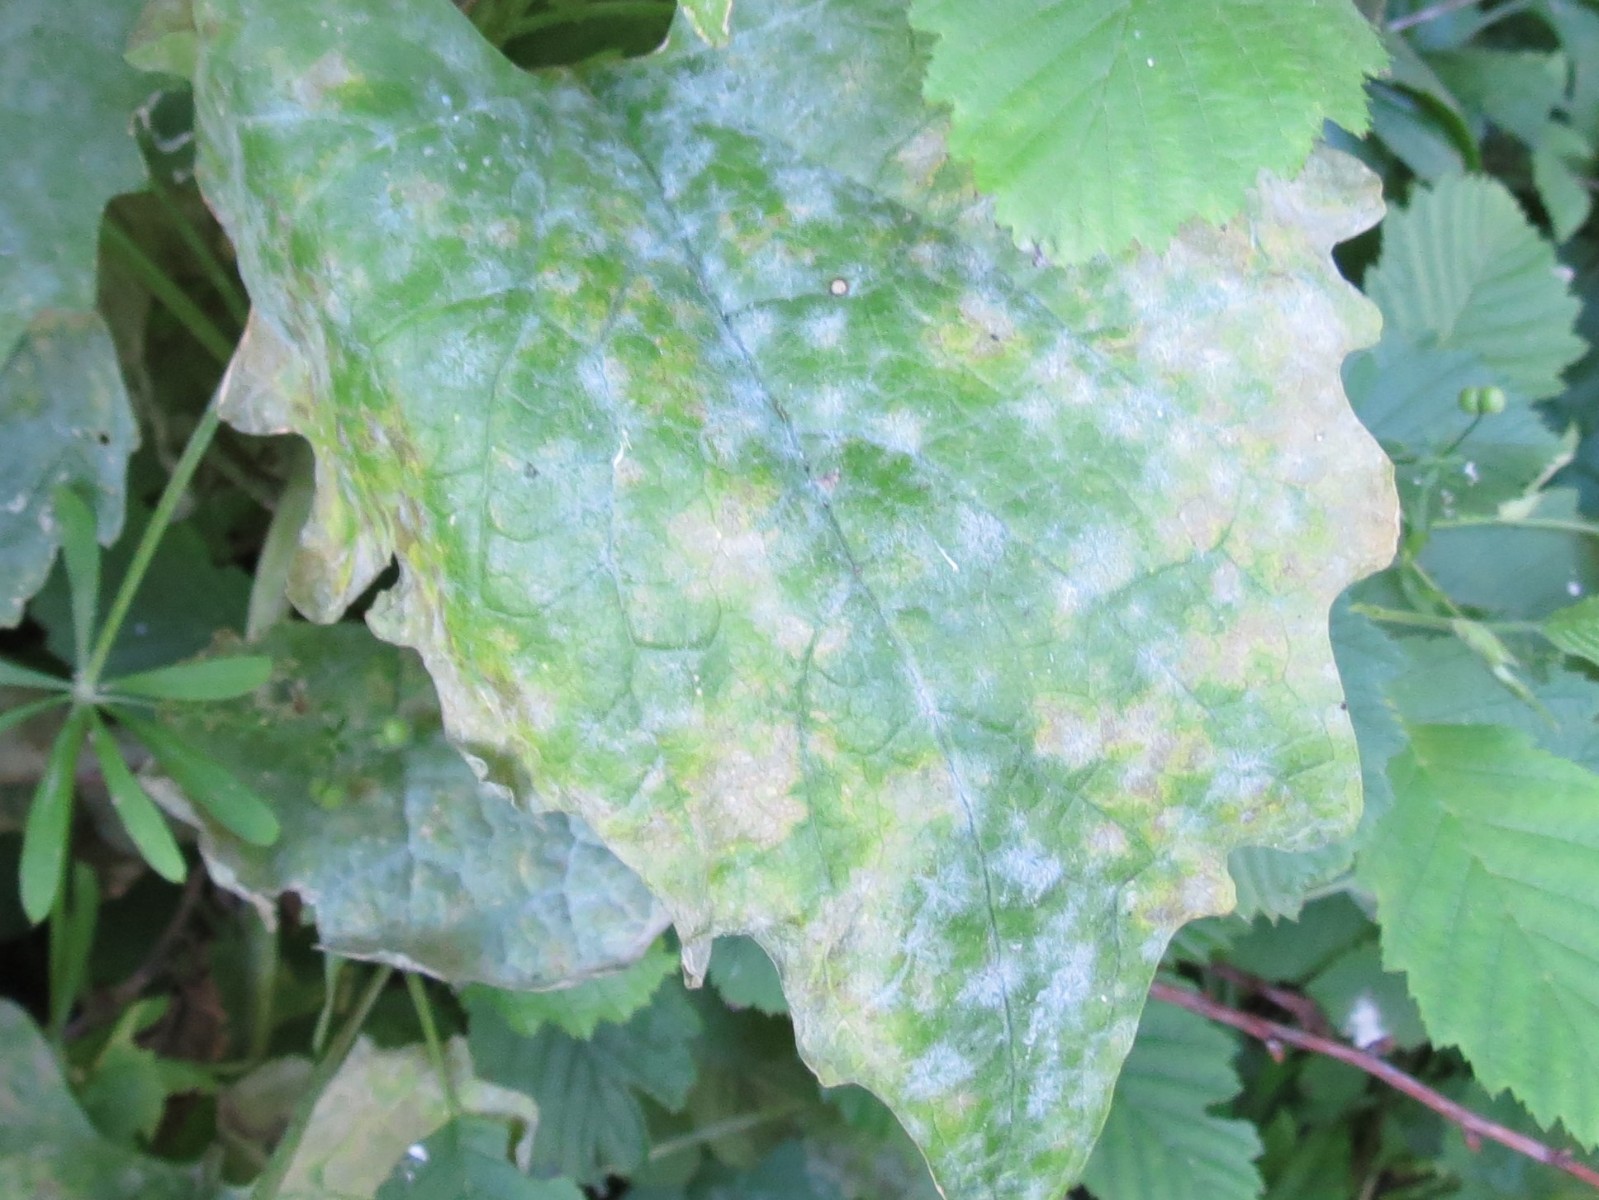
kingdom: Fungi
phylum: Ascomycota
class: Leotiomycetes
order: Helotiales
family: Erysiphaceae
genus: Erysiphe
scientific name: Erysiphe cruciferarum
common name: korsblomst-meldug
